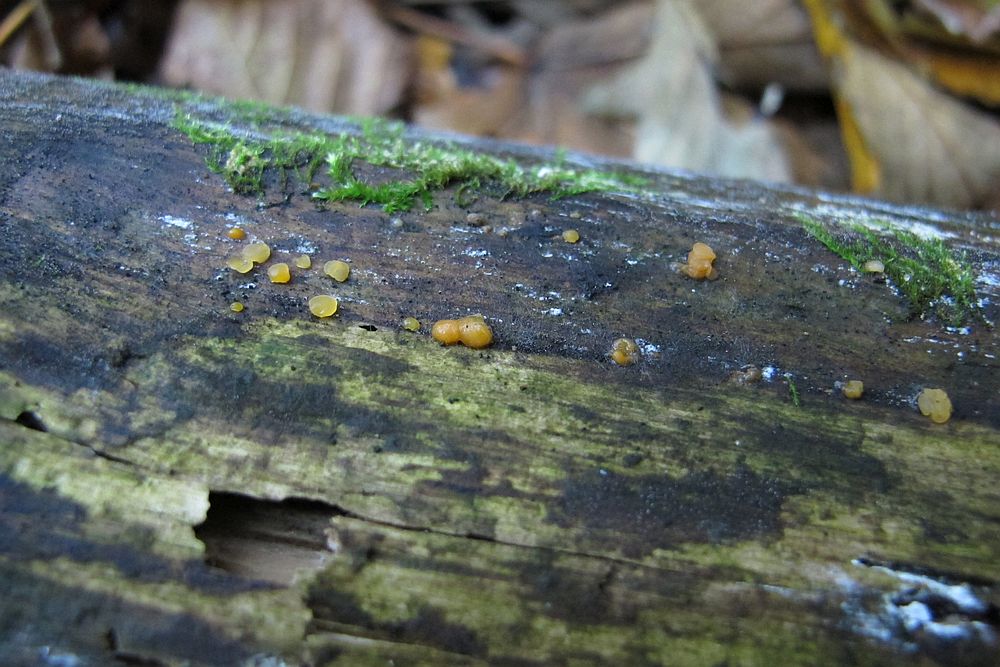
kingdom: Fungi
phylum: Basidiomycota
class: Dacrymycetes
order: Dacrymycetales
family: Dacrymycetaceae
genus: Dacrymyces
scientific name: Dacrymyces stillatus
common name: almindelig tåresvamp
